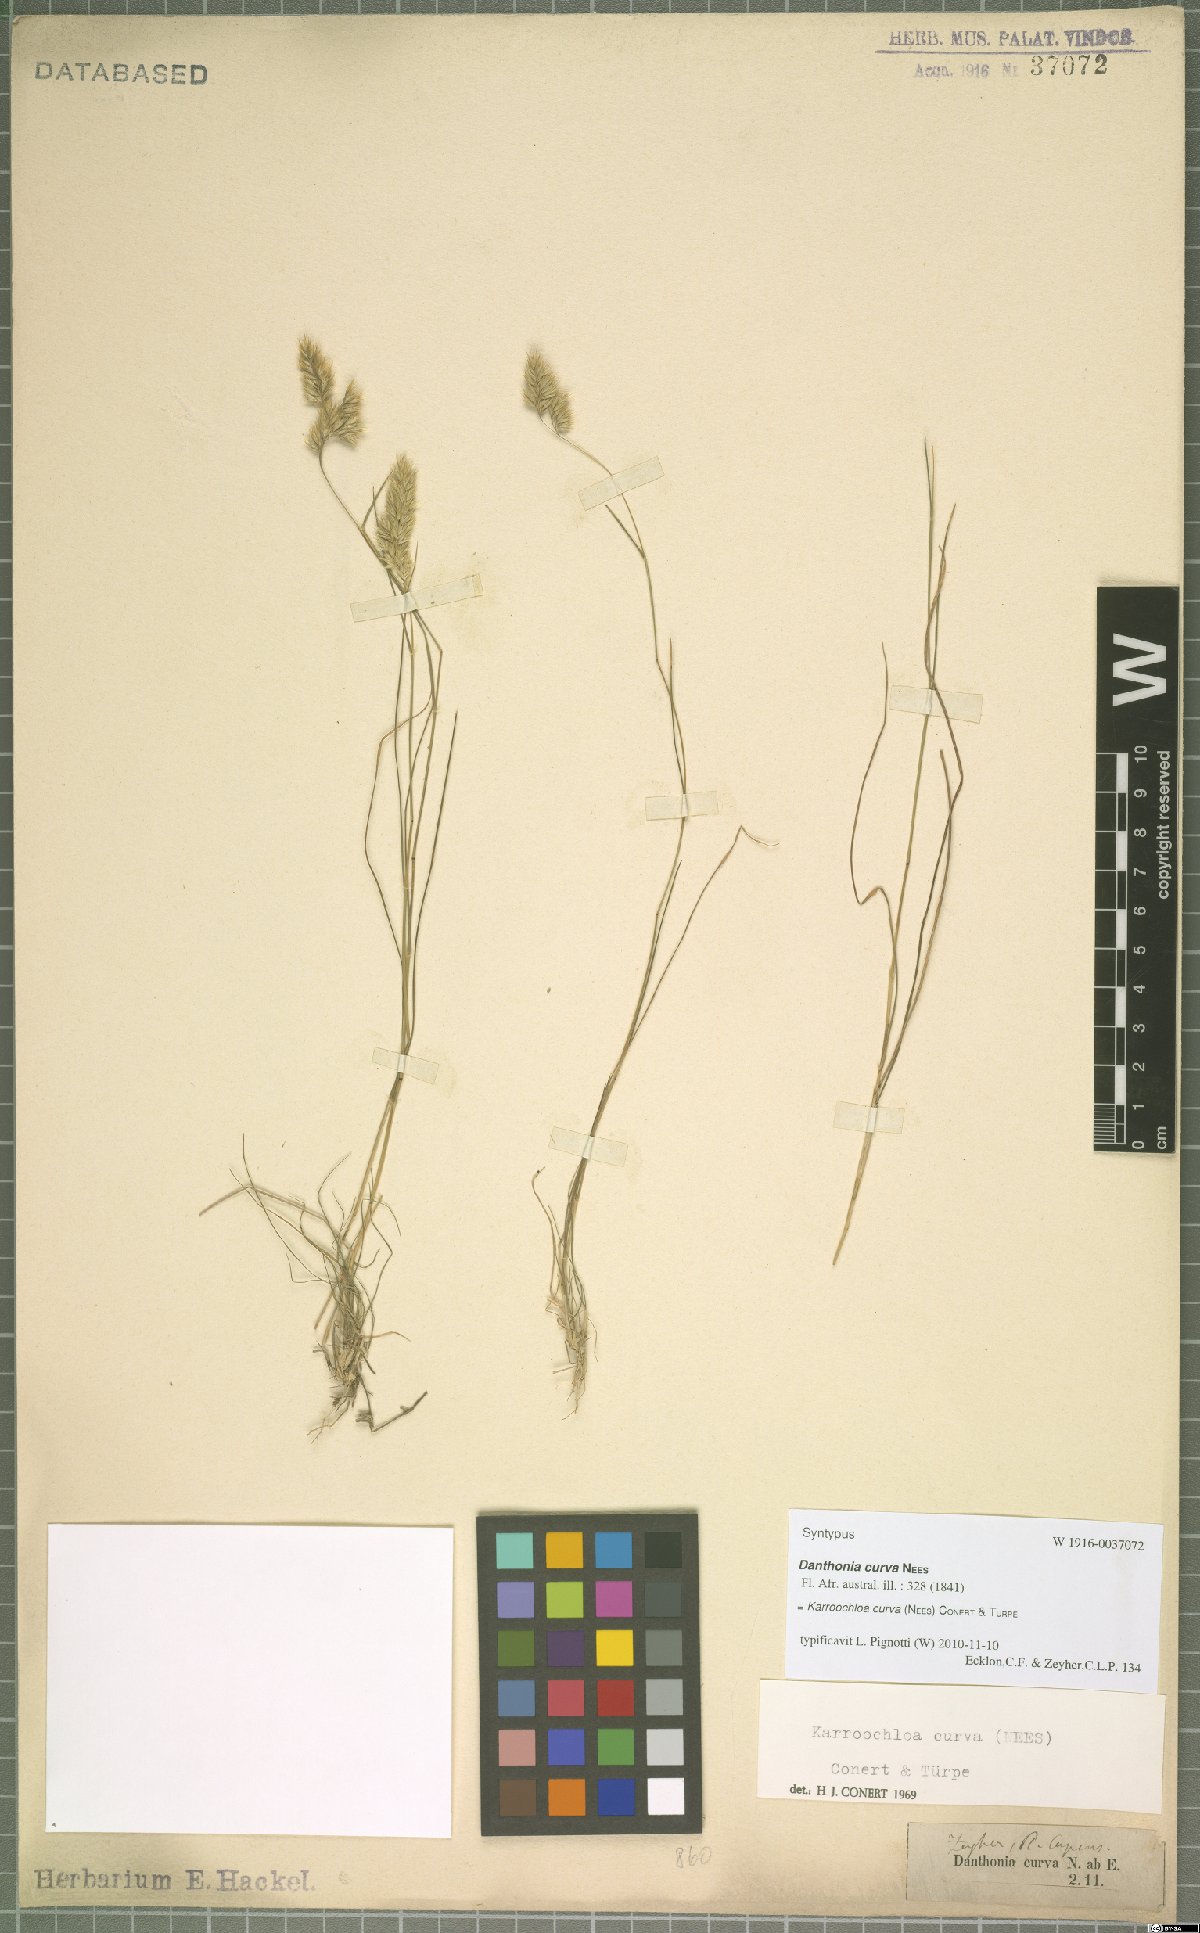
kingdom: Plantae
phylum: Tracheophyta
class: Liliopsida
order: Poales
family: Poaceae
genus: Tribolium
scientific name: Tribolium curvum
